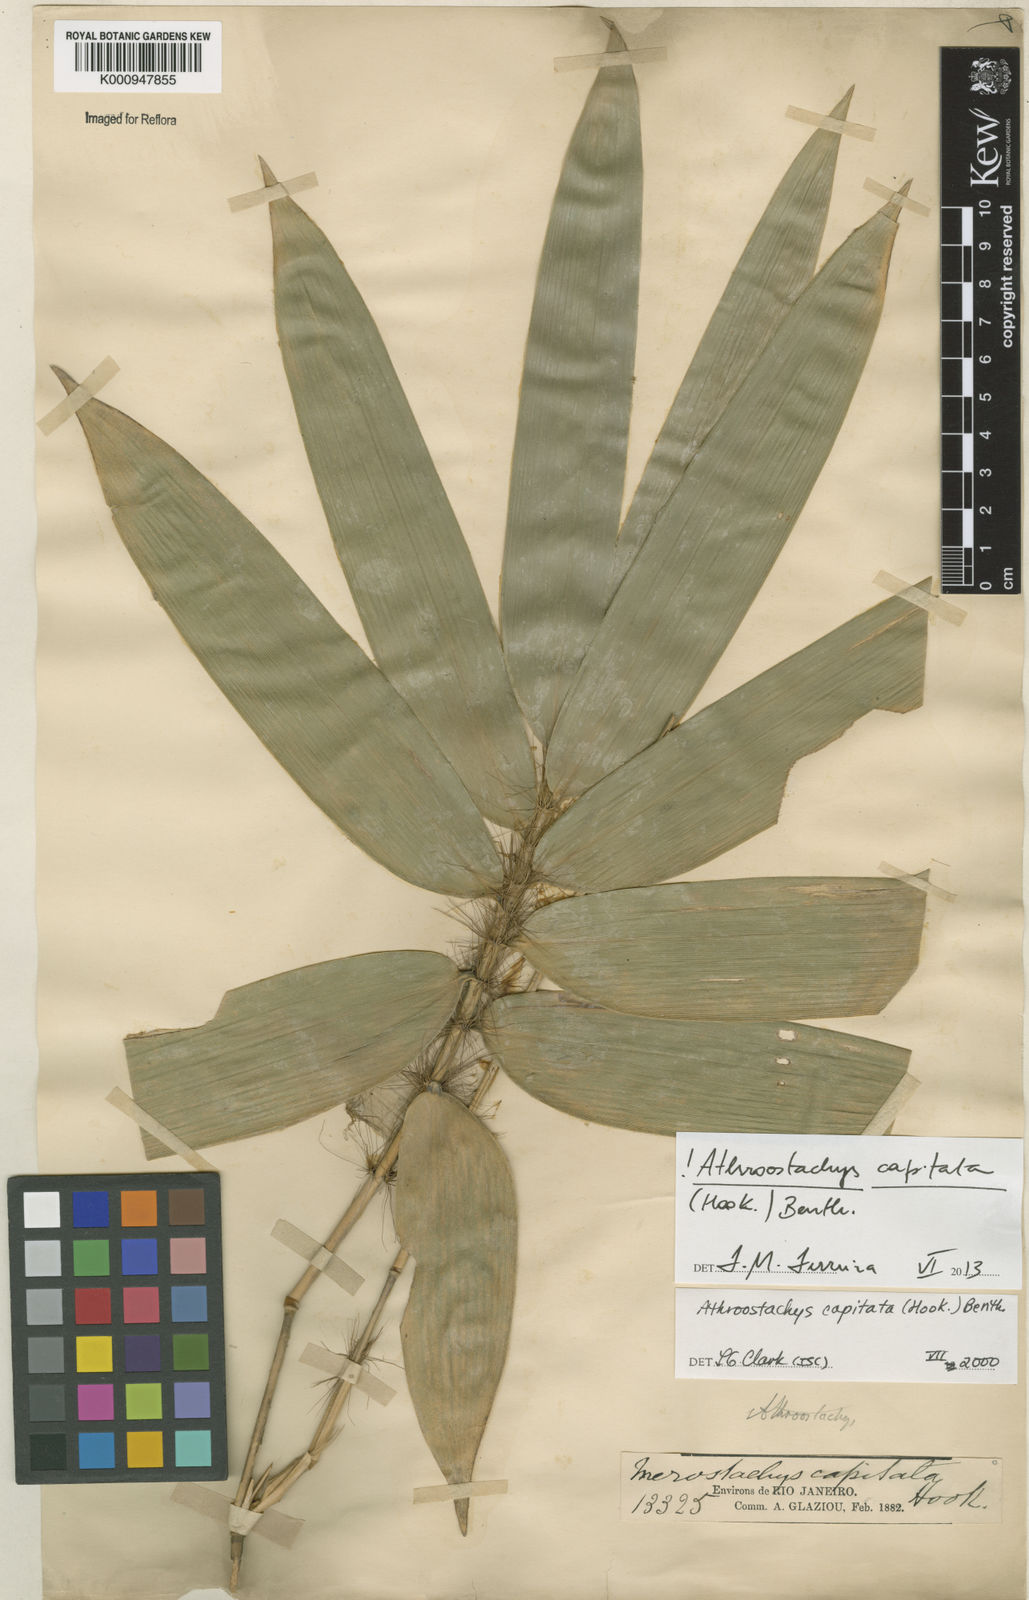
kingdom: Plantae
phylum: Tracheophyta
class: Liliopsida
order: Poales
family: Poaceae
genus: Athroostachys
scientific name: Athroostachys capitata
